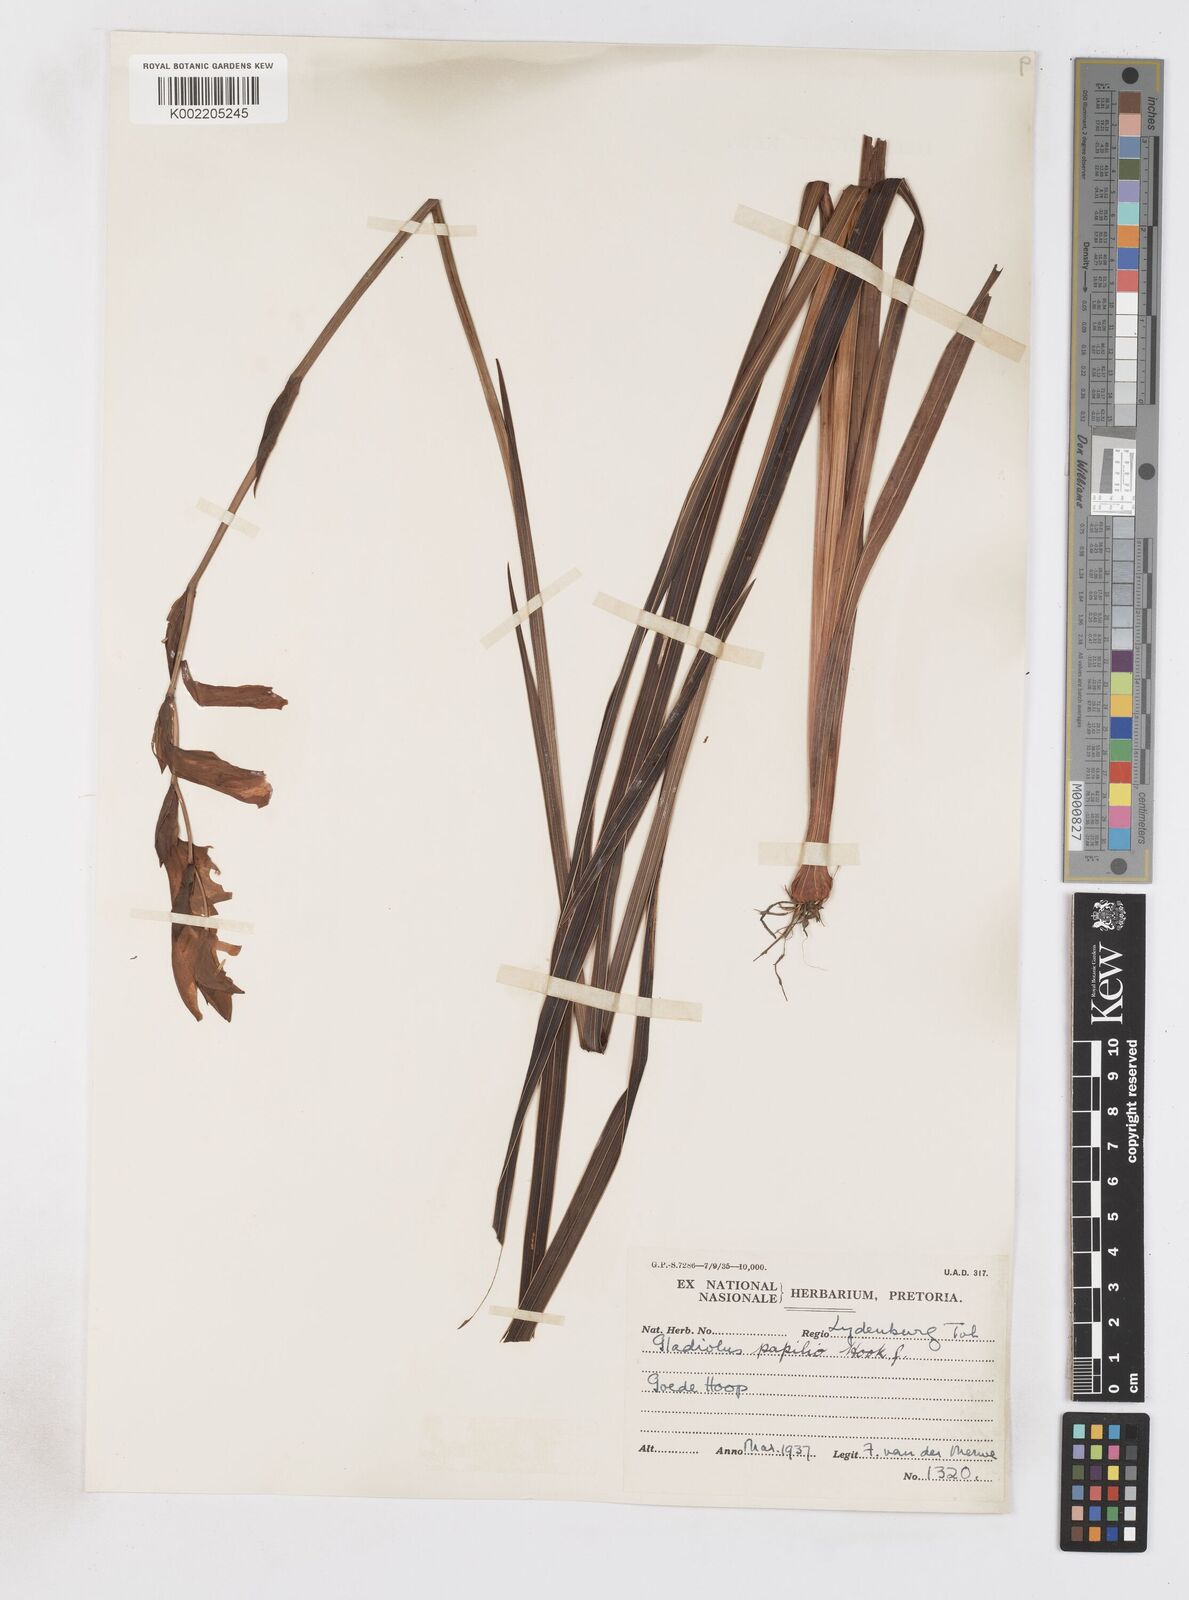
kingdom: Plantae
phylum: Tracheophyta
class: Liliopsida
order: Asparagales
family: Iridaceae
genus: Gladiolus
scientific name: Gladiolus papilio
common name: Goldblotch gladiolus
